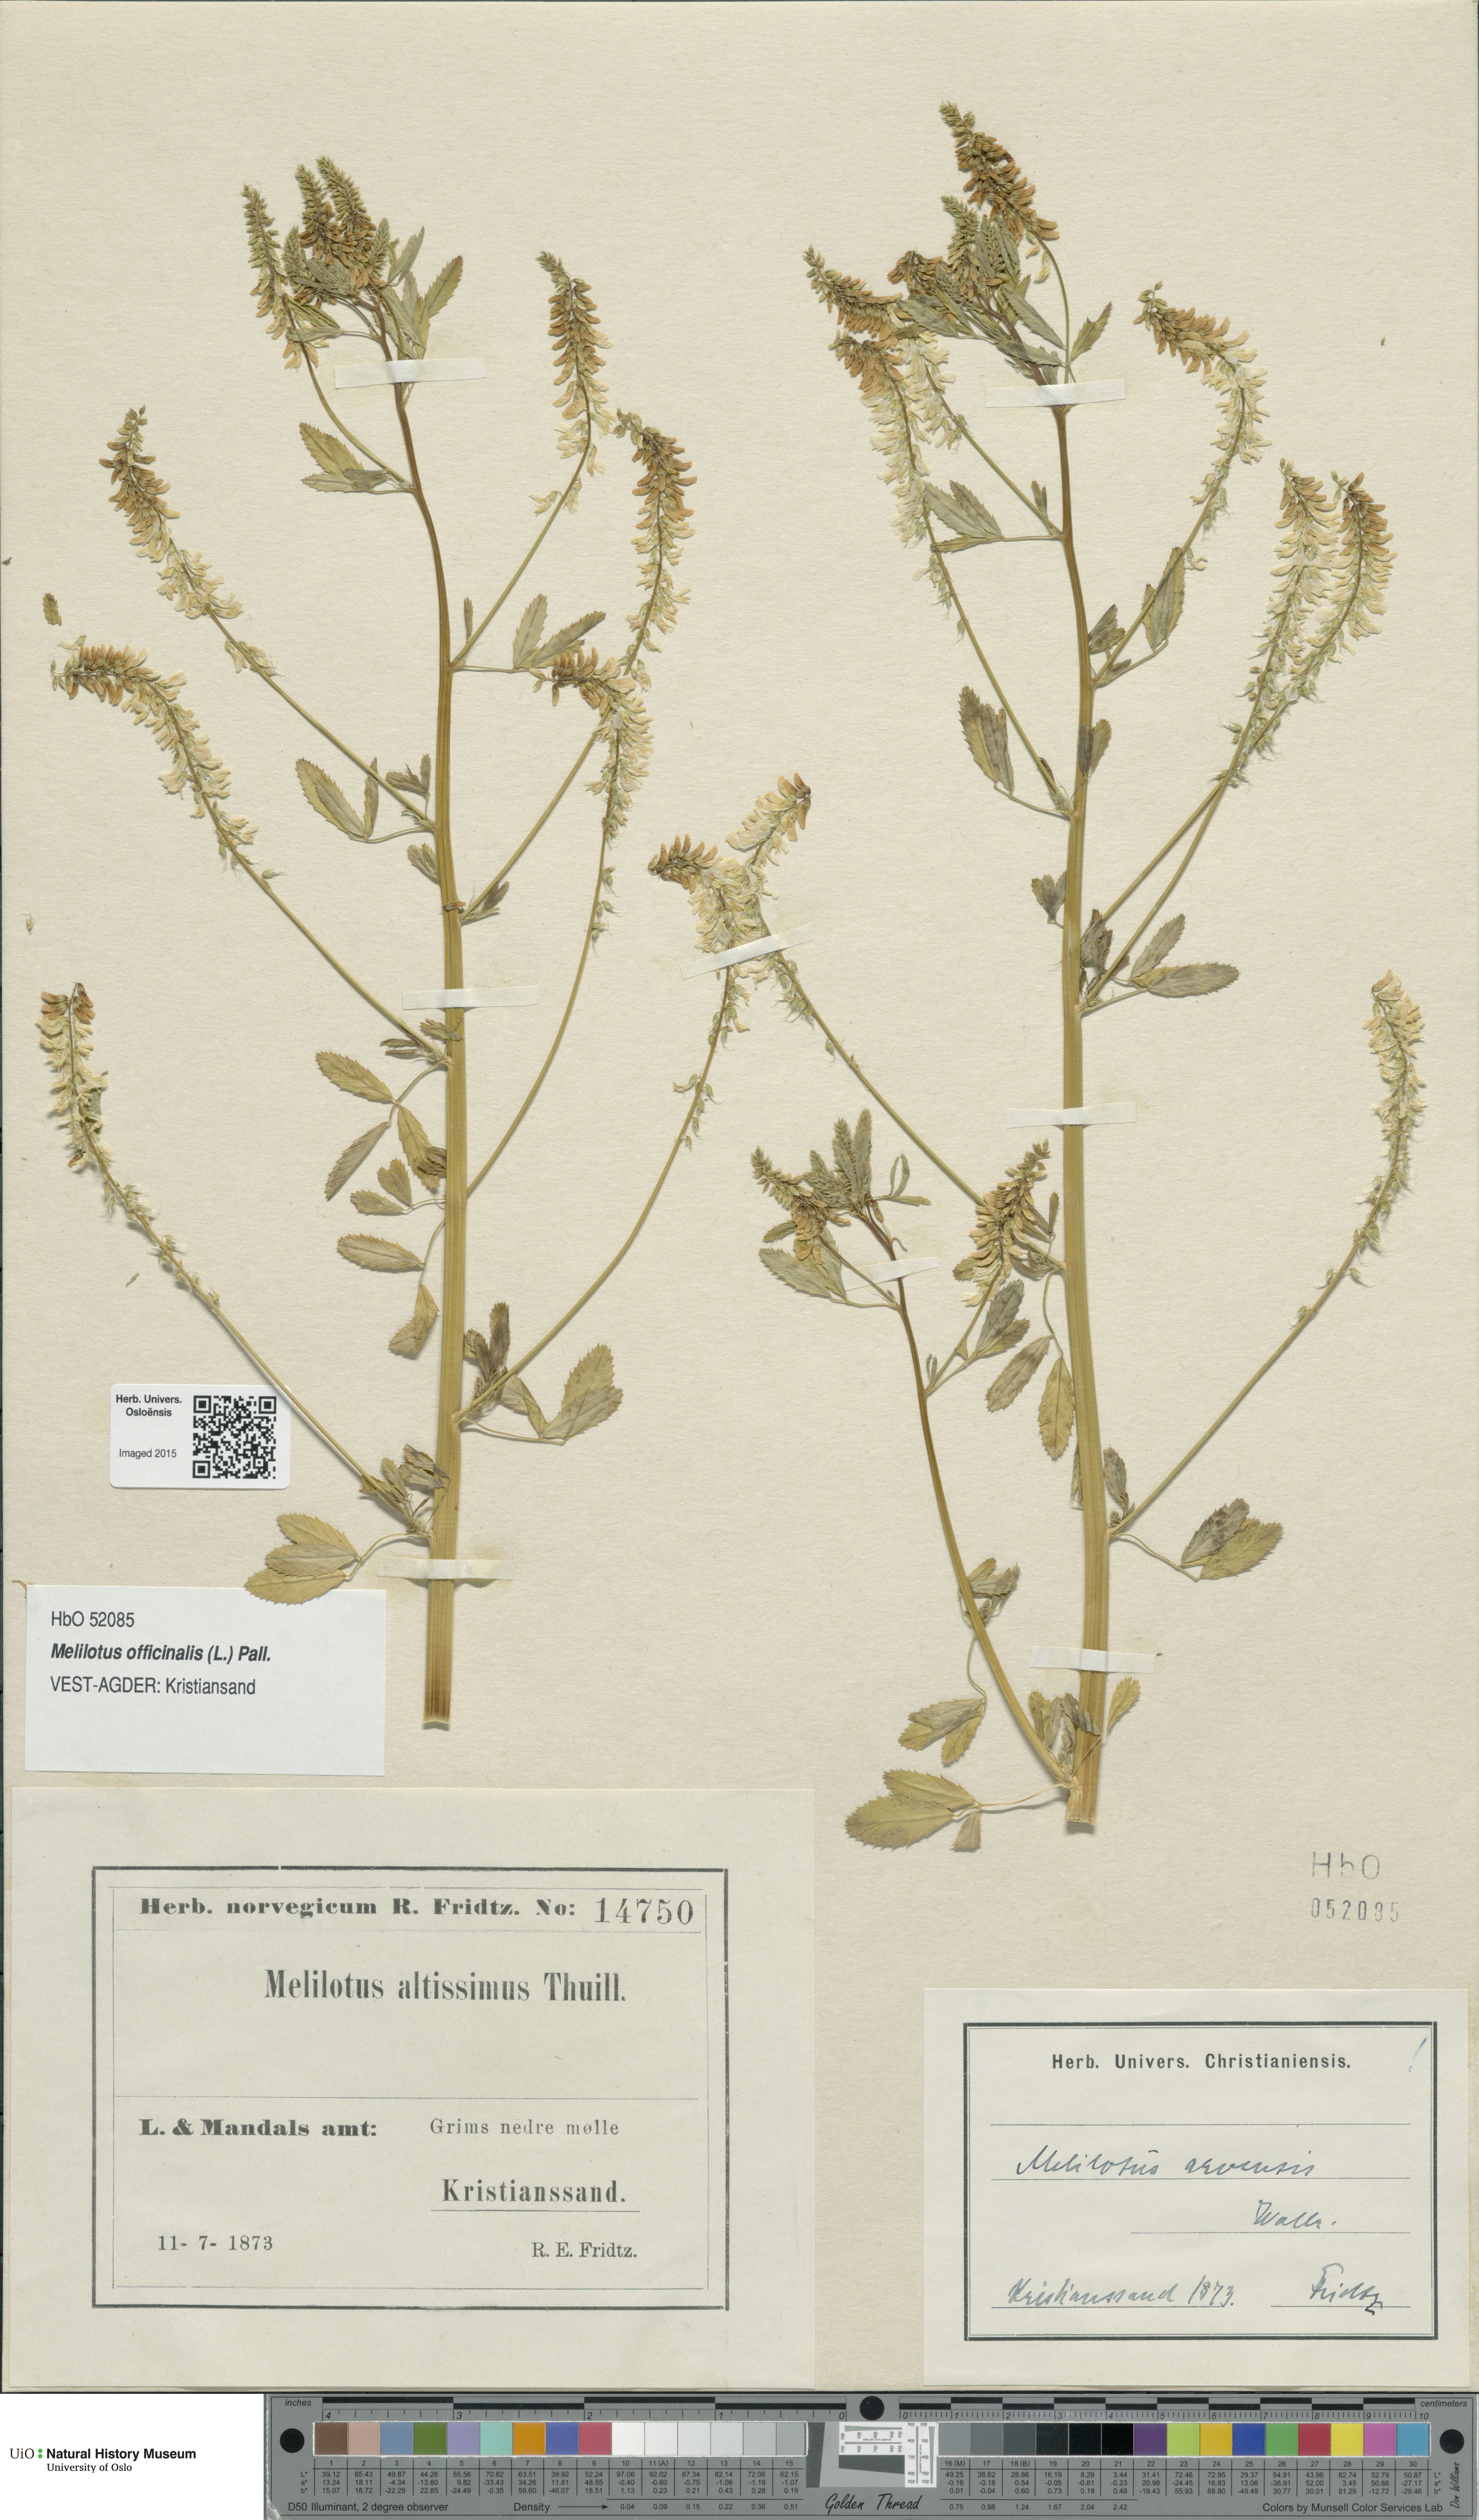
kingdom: Plantae
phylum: Tracheophyta
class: Magnoliopsida
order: Fabales
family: Fabaceae
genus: Melilotus
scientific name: Melilotus officinalis
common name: Sweetclover
